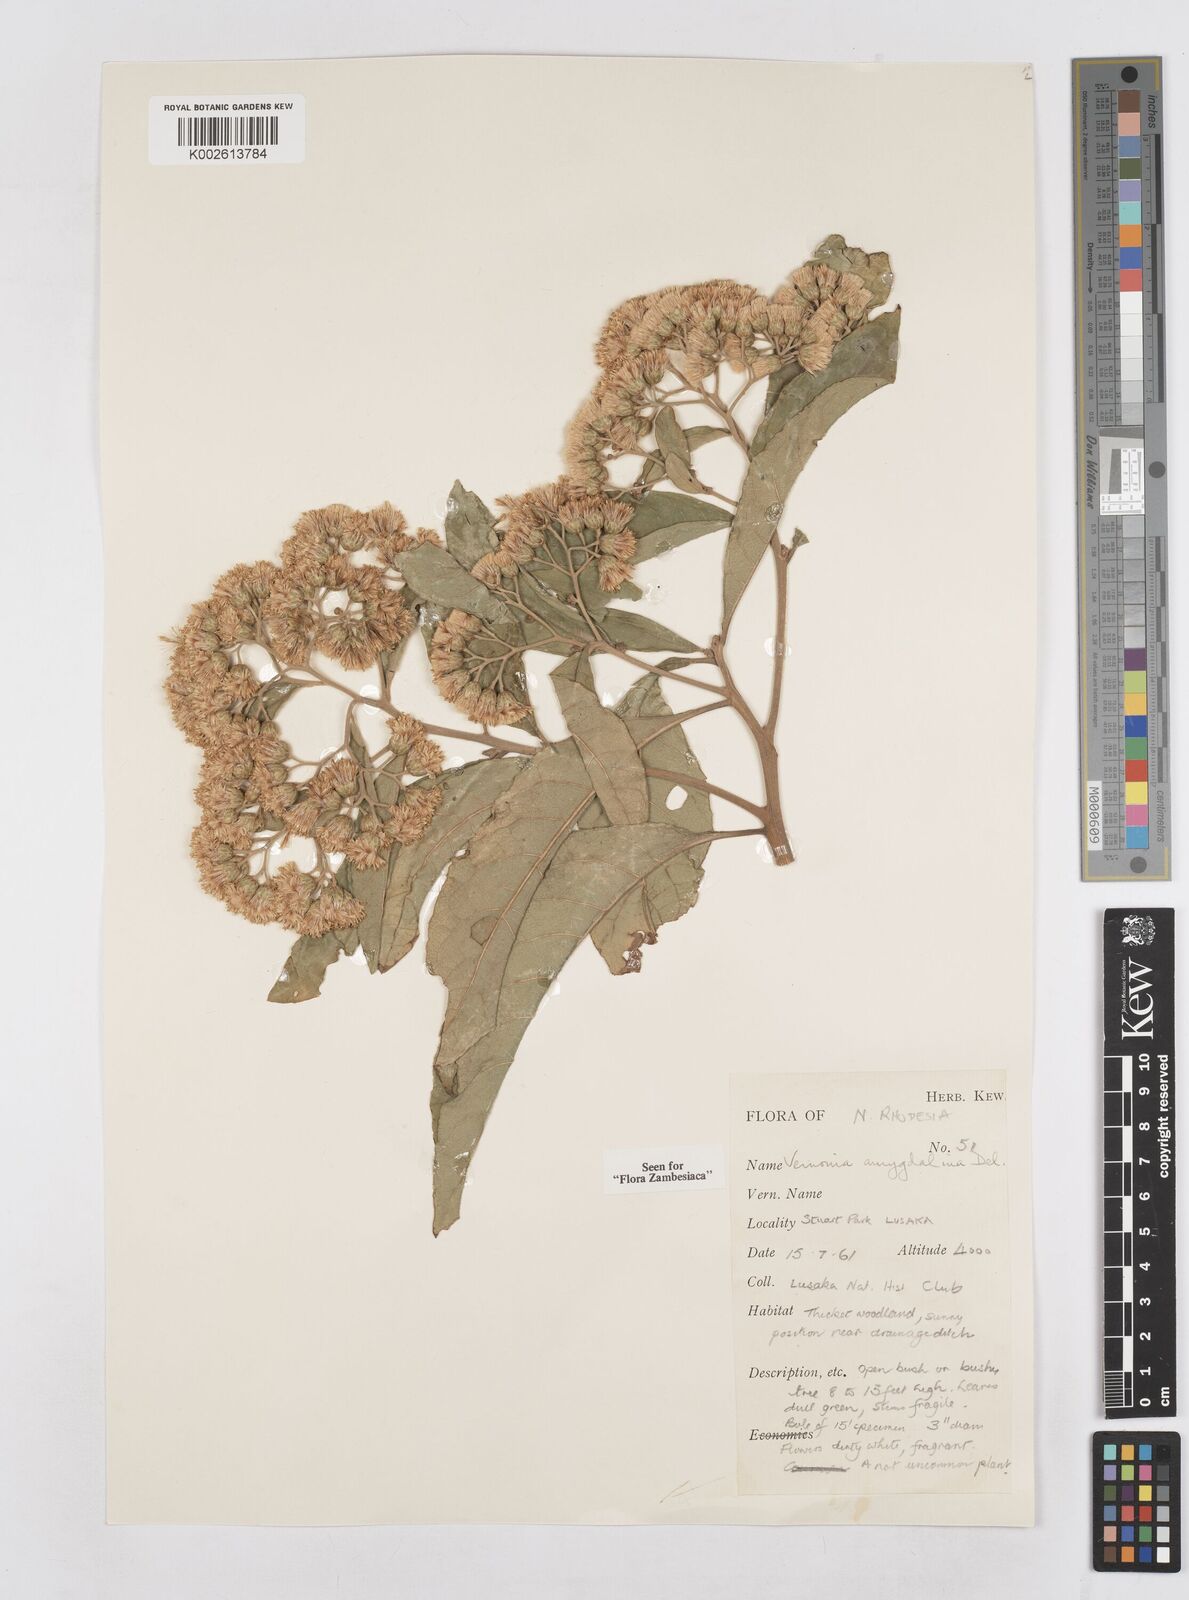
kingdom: Plantae
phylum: Tracheophyta
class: Magnoliopsida
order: Asterales
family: Asteraceae
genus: Gymnanthemum
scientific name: Gymnanthemum amygdalinum
